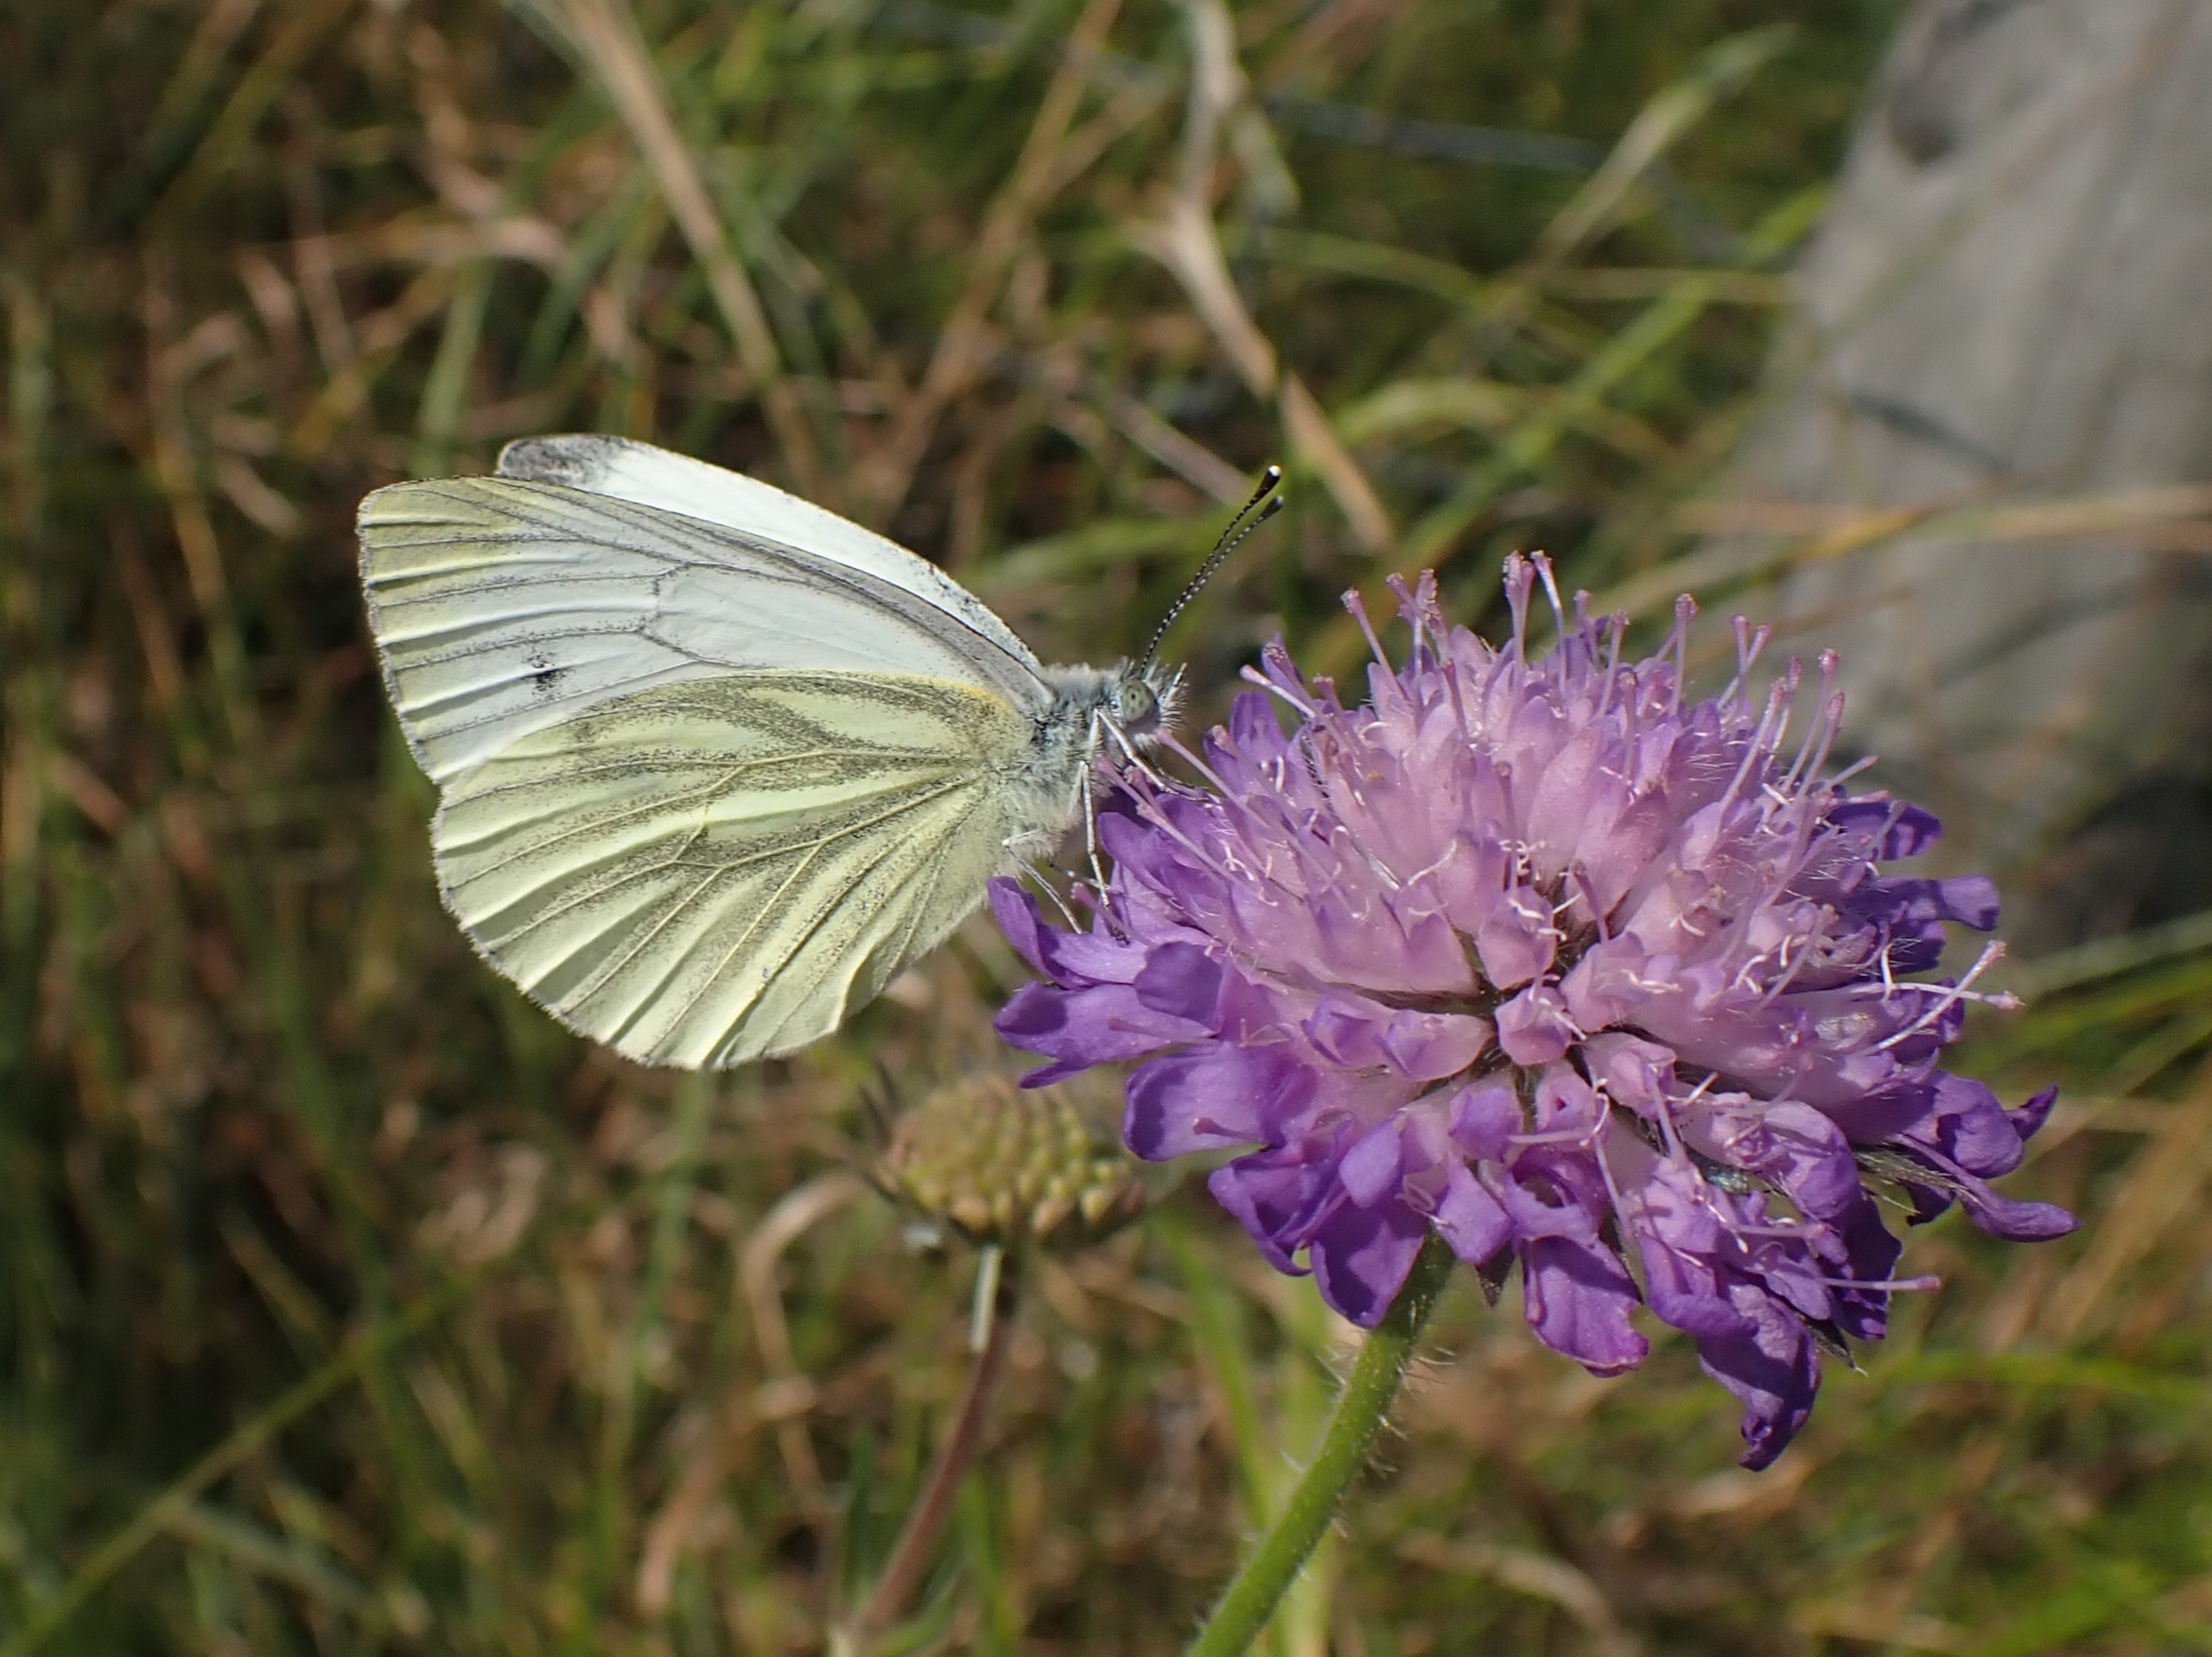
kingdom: Animalia
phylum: Arthropoda
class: Insecta
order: Lepidoptera
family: Pieridae
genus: Pieris
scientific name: Pieris napi
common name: Grønåret kålsommerfugl
